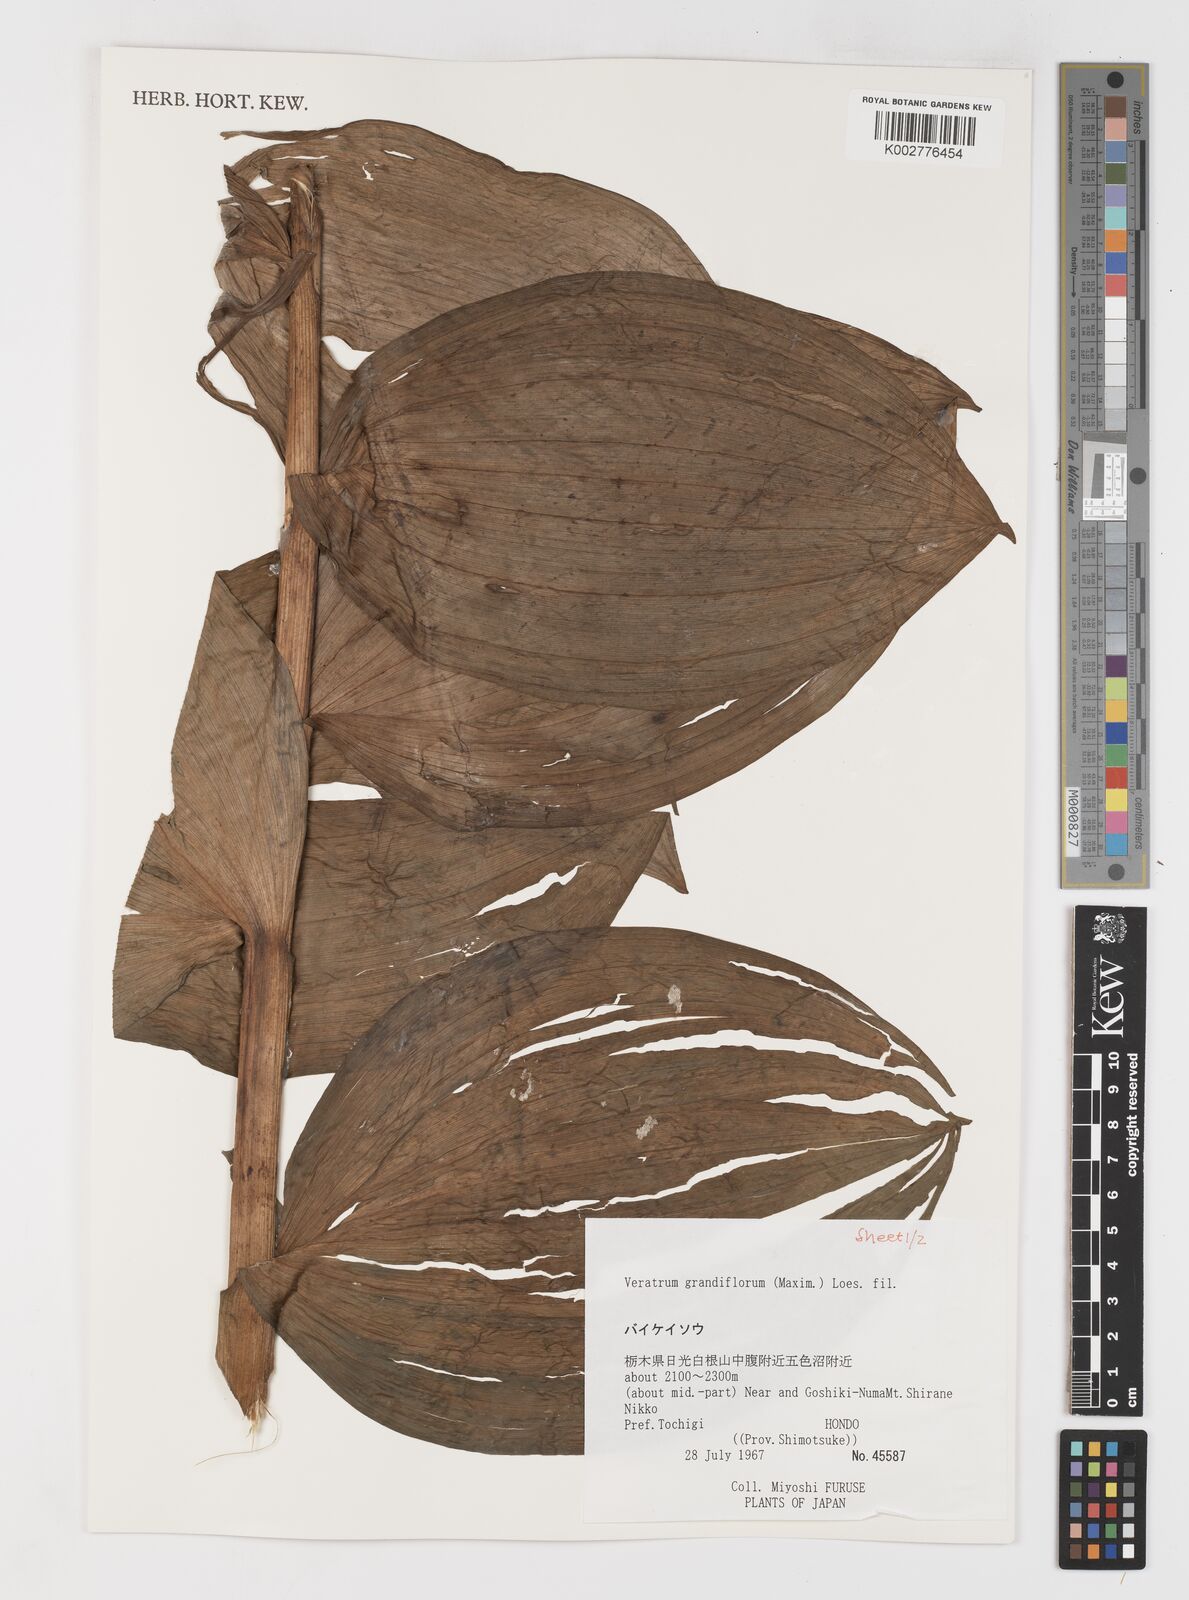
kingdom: Plantae
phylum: Tracheophyta
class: Liliopsida
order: Liliales
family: Melanthiaceae
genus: Veratrum
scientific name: Veratrum album
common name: White veratrum
